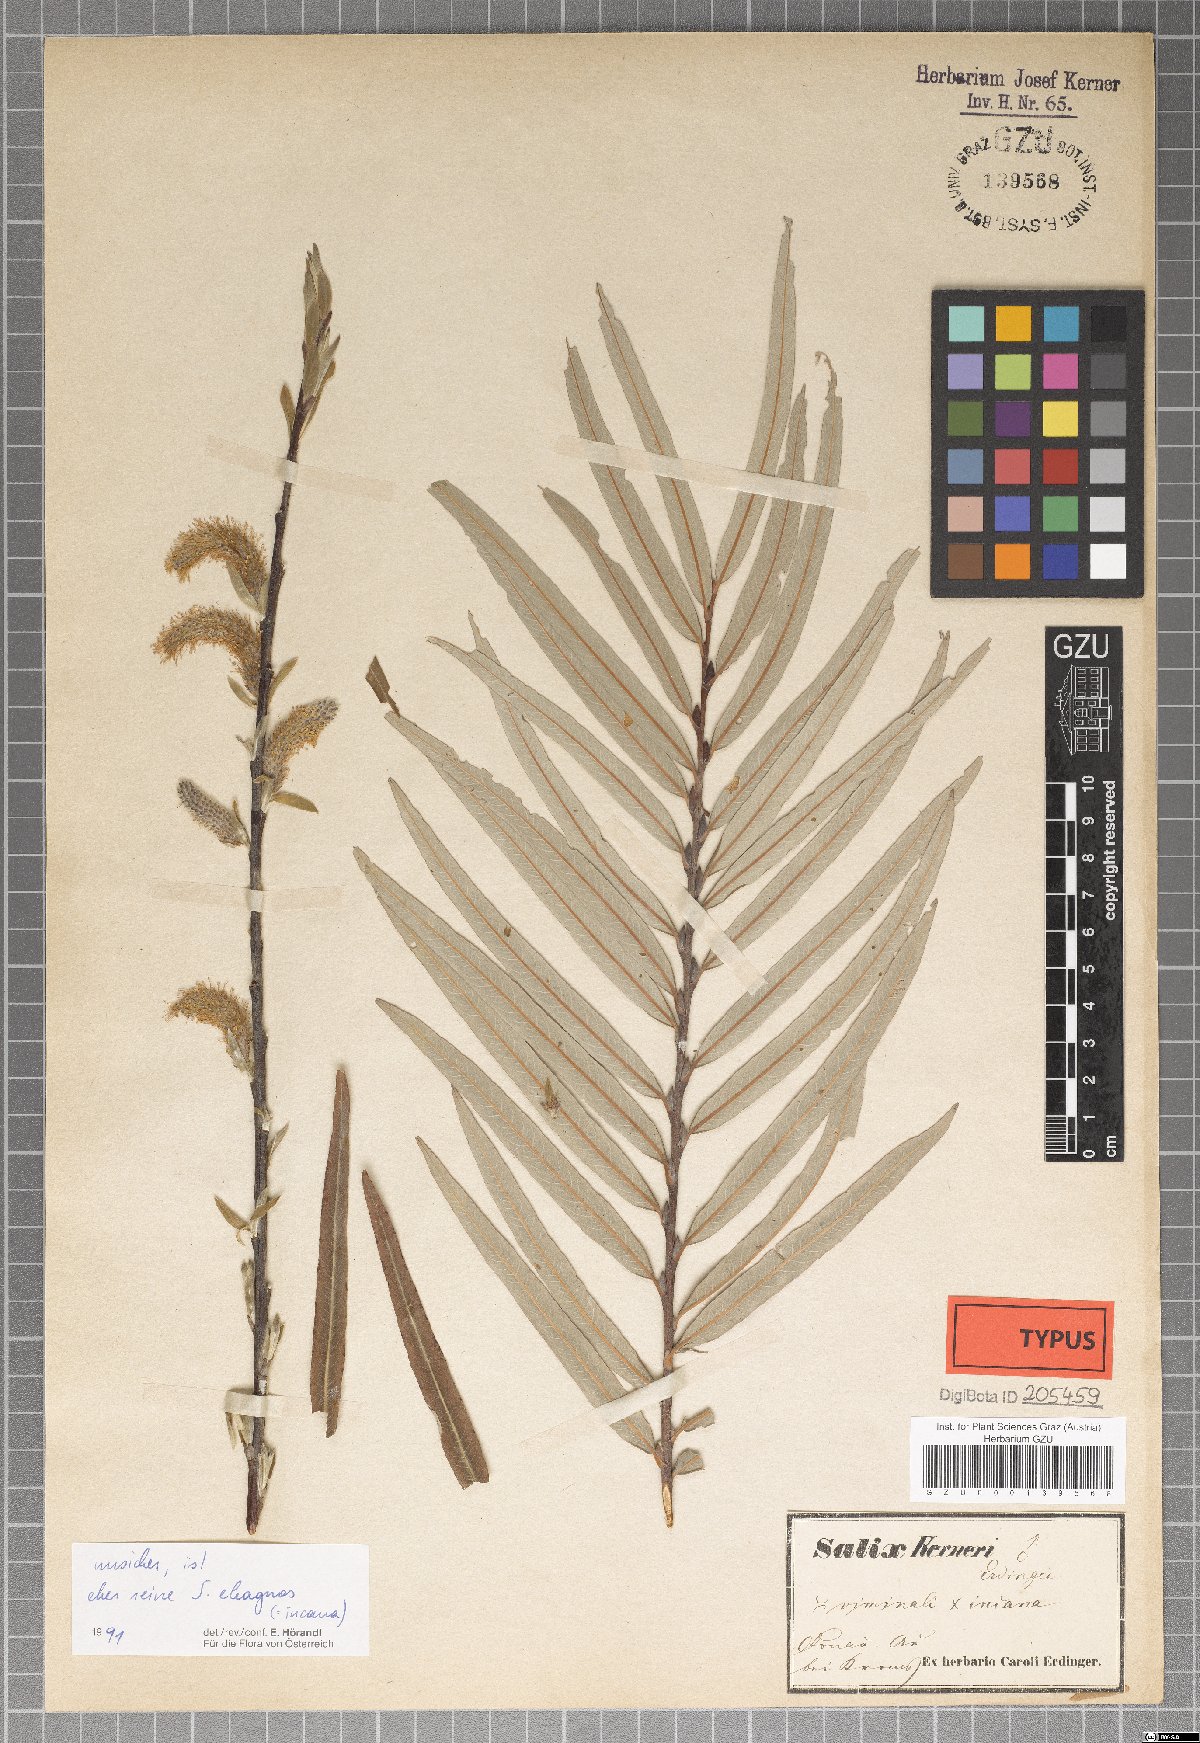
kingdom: Plantae
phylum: Tracheophyta
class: Magnoliopsida
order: Malpighiales
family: Salicaceae
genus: Salix
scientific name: Salix kerneri
